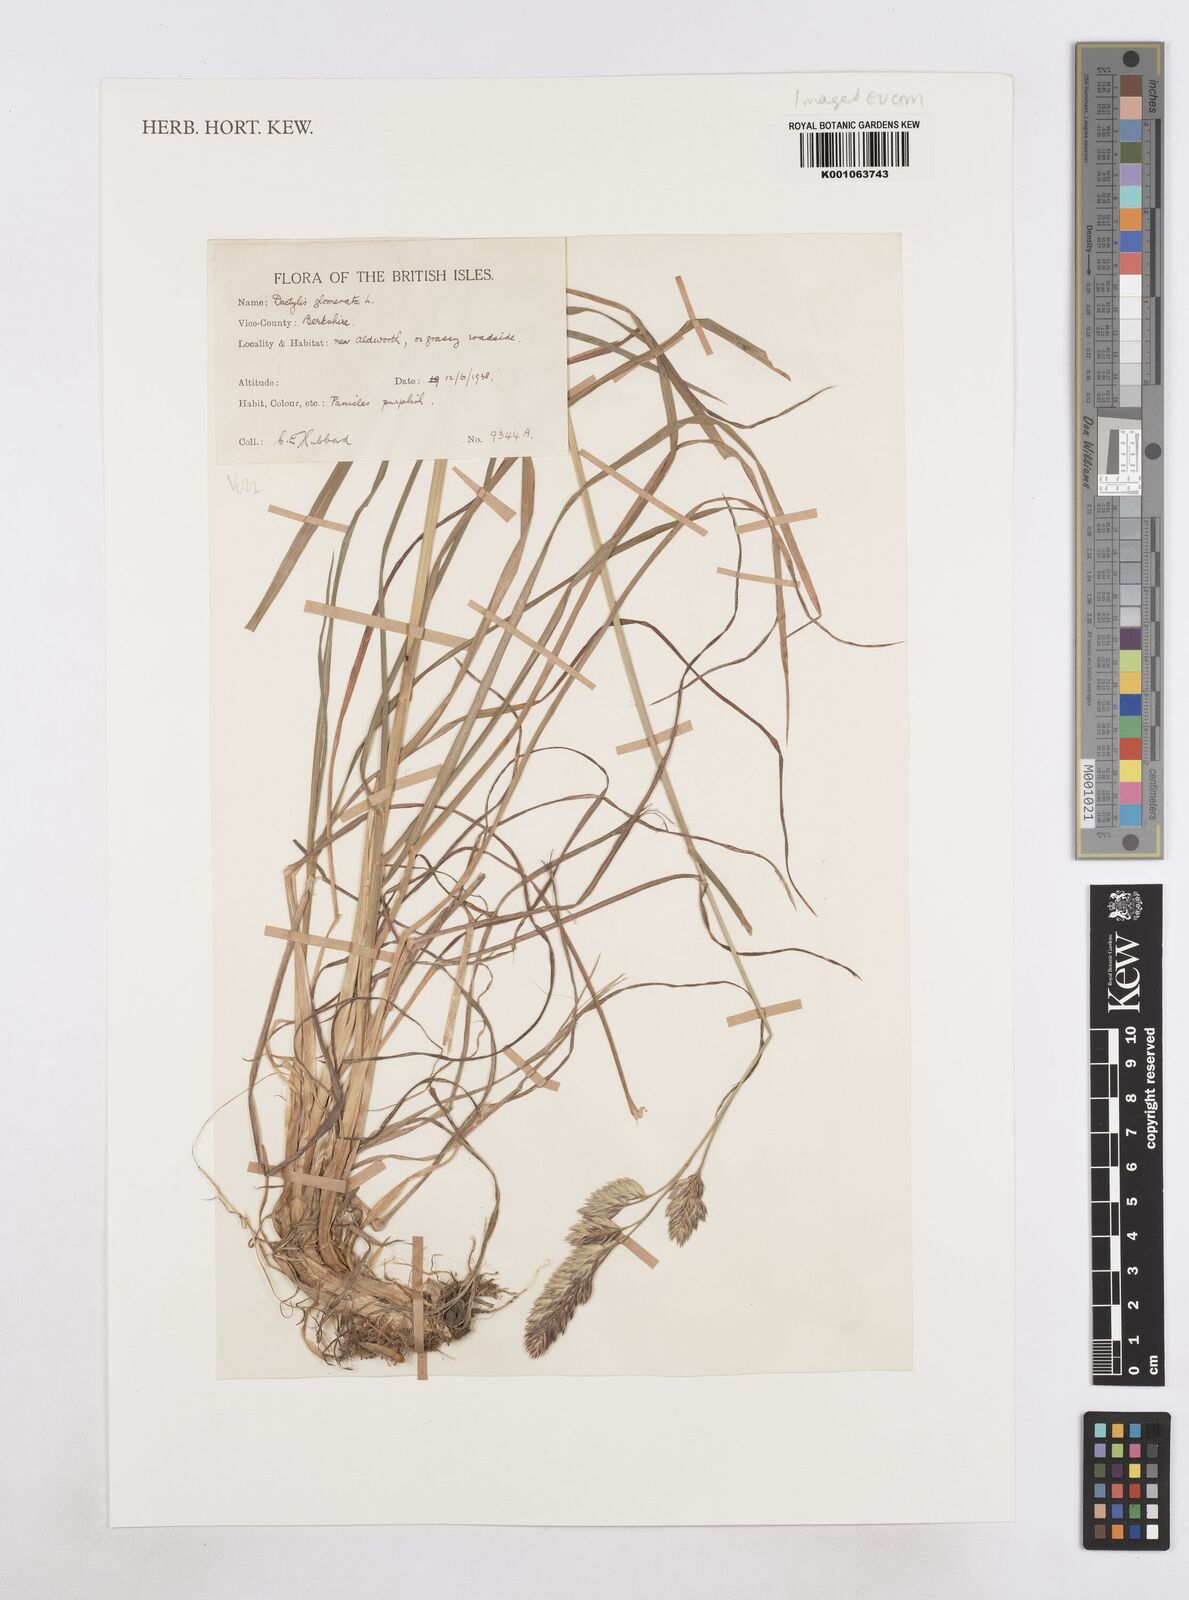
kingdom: Plantae
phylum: Tracheophyta
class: Liliopsida
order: Poales
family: Poaceae
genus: Dactylis
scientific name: Dactylis glomerata
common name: Orchardgrass
